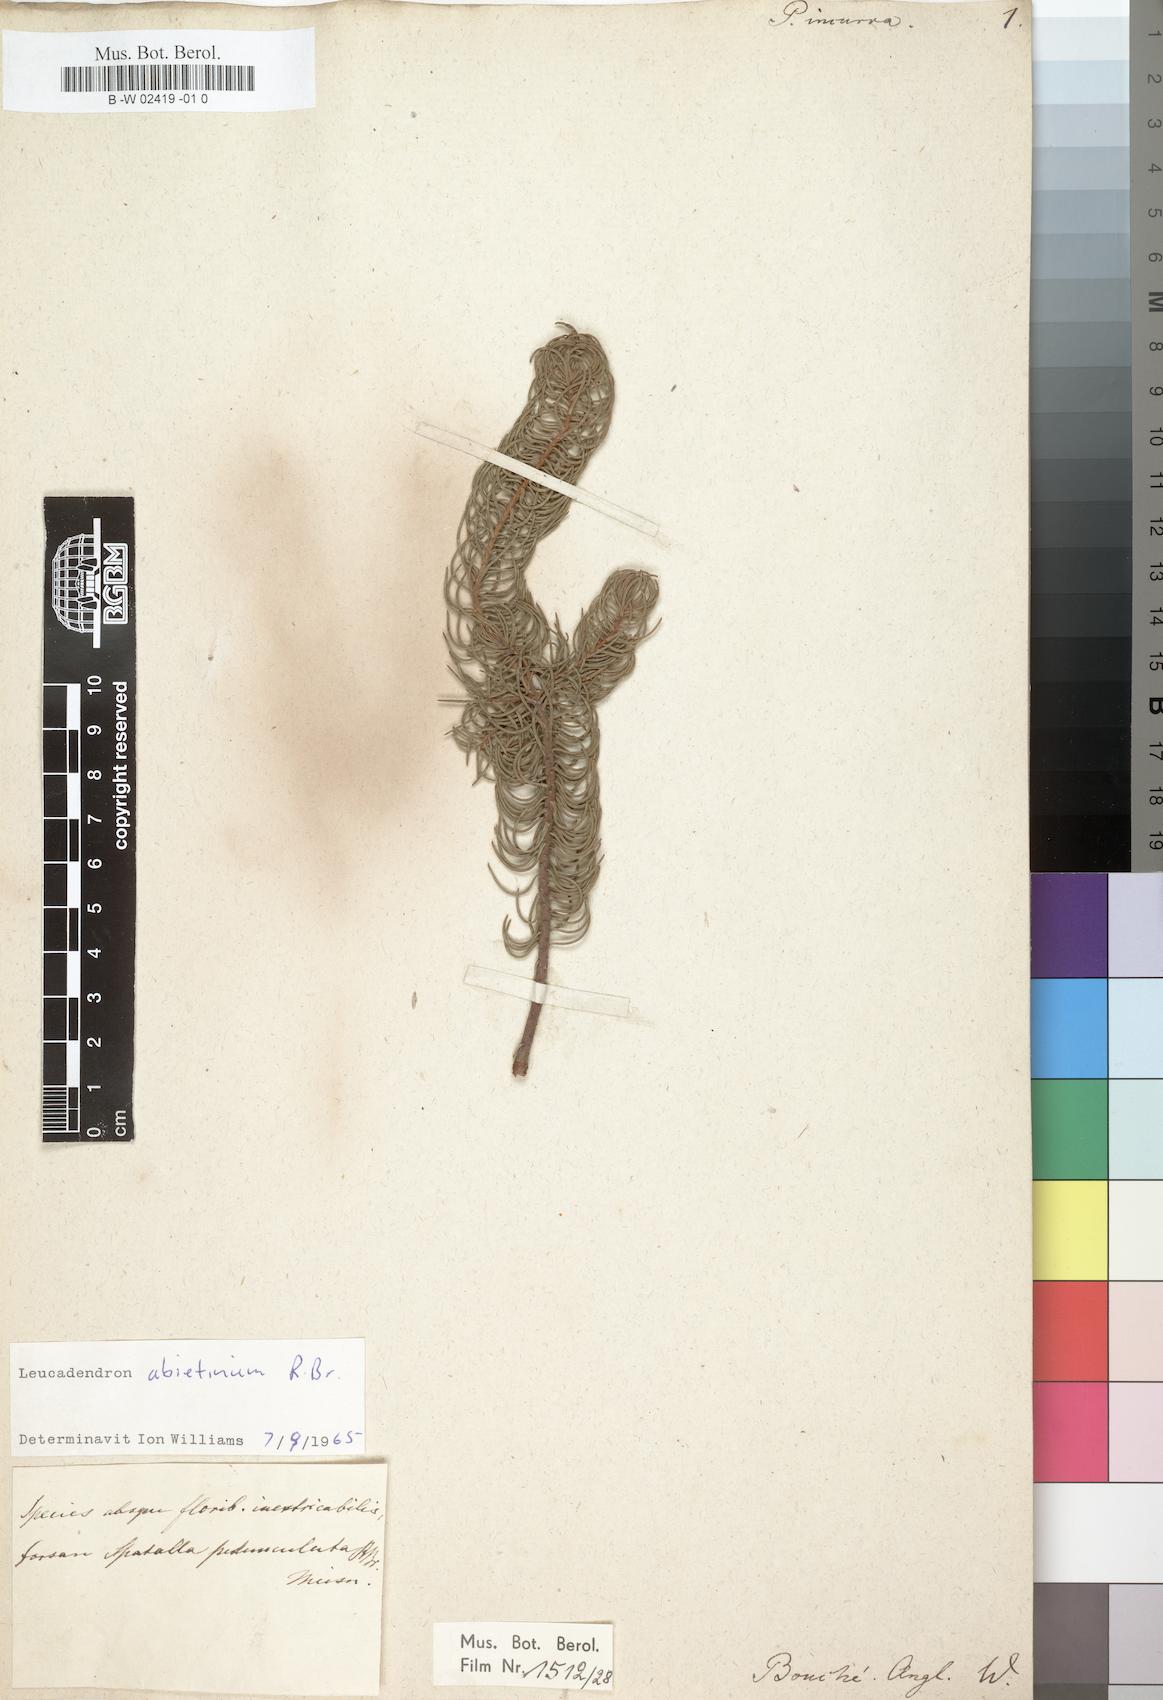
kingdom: Plantae
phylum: Tracheophyta
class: Magnoliopsida
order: Proteales
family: Proteaceae
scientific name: Proteaceae
